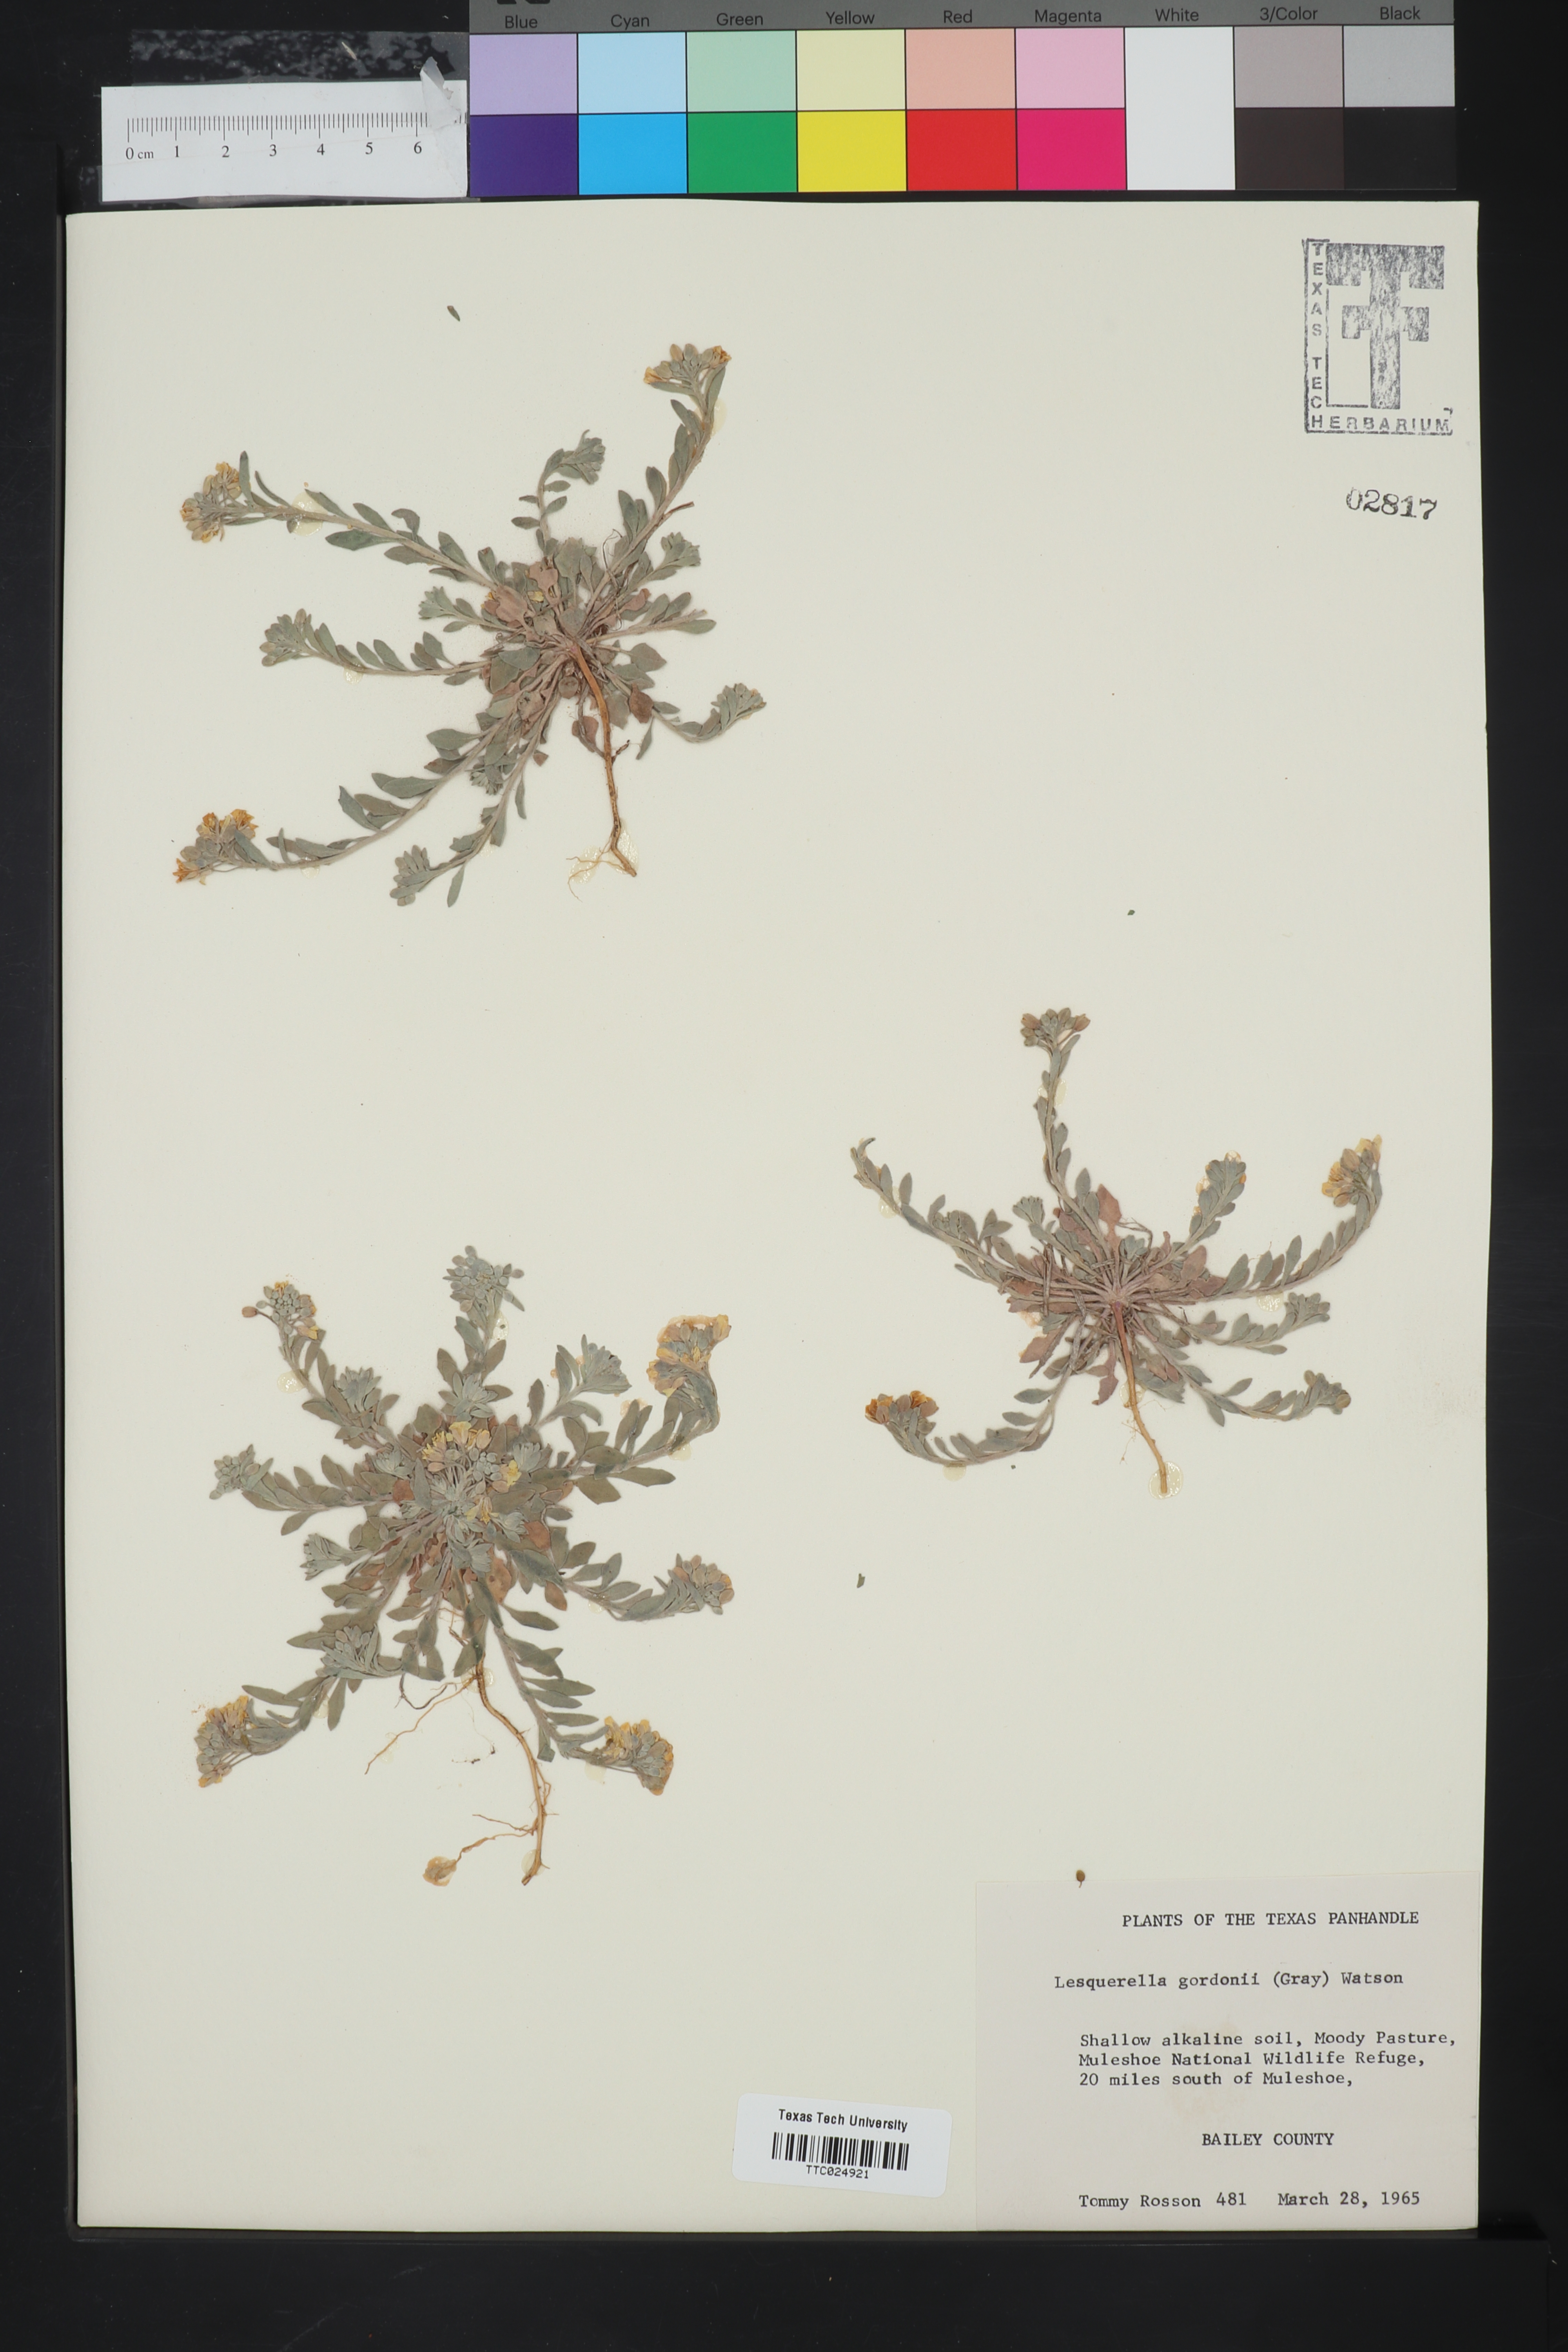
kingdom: Plantae
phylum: Tracheophyta
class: Magnoliopsida
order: Brassicales
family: Brassicaceae
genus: Physaria
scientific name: Physaria gordonii
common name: Gordon's bladderpod
